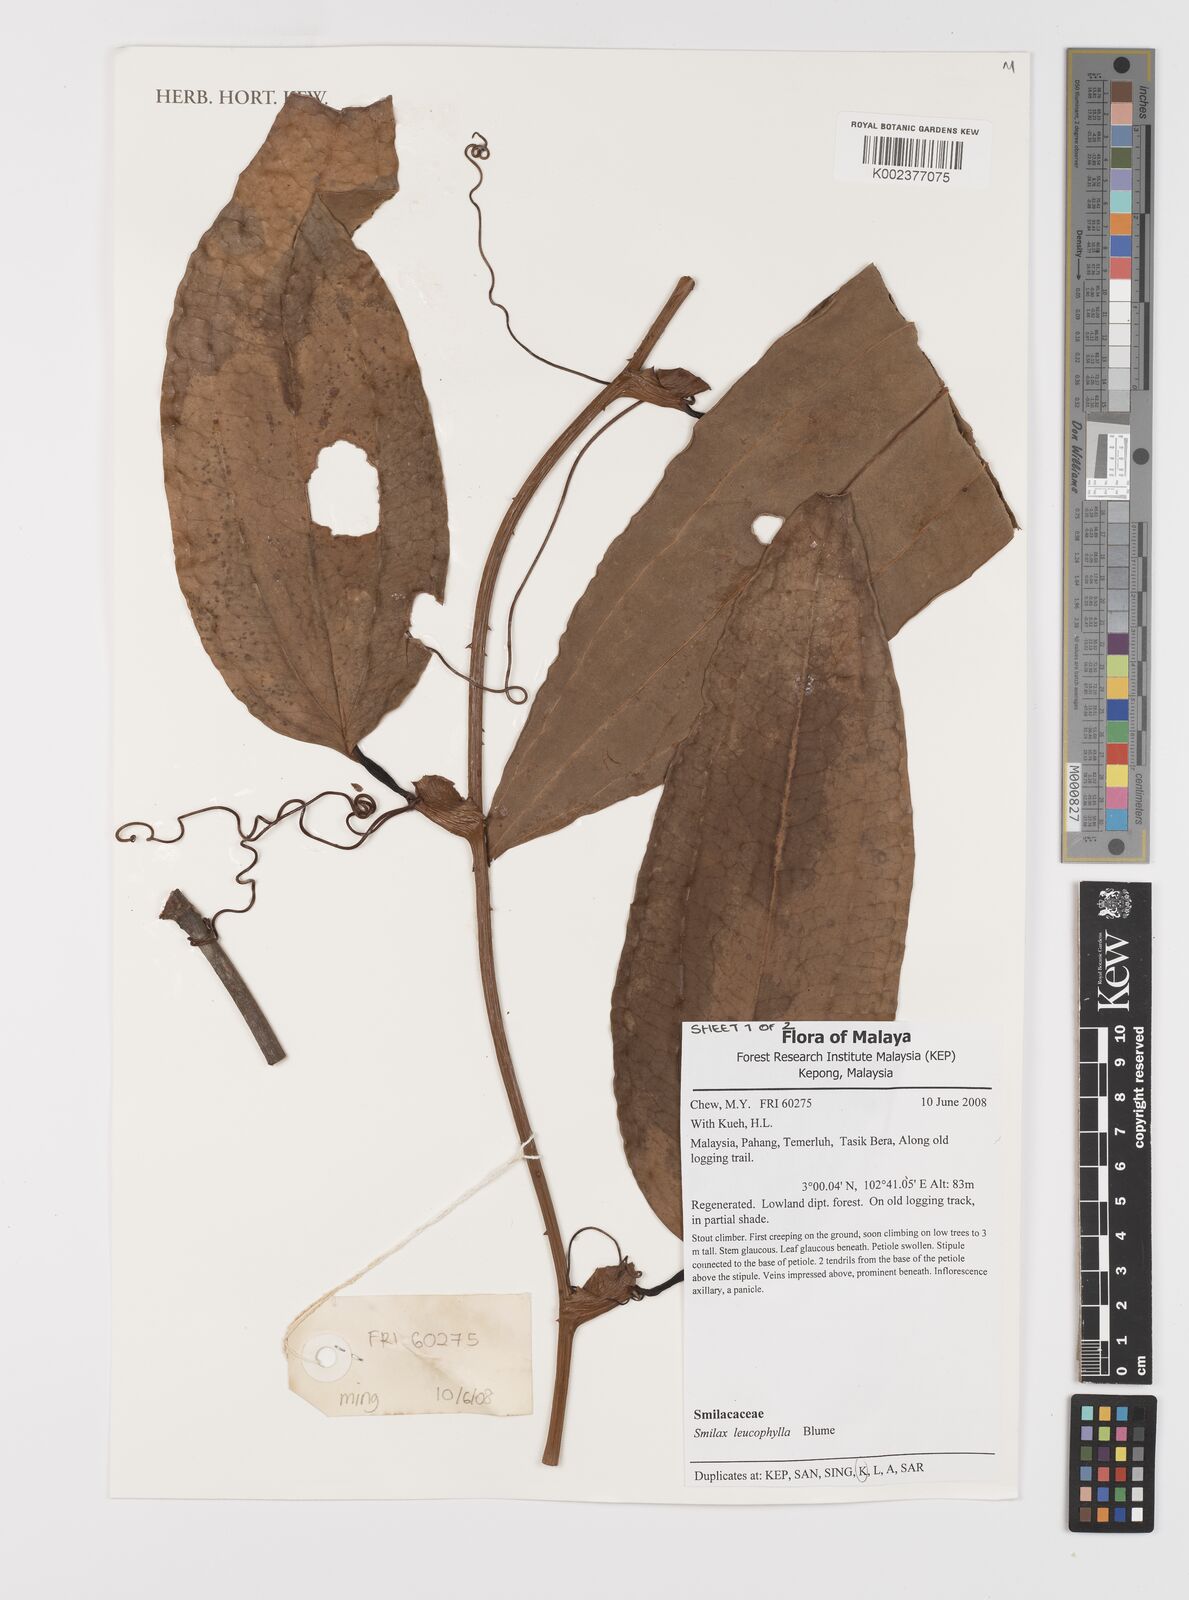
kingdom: Plantae
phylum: Tracheophyta
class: Liliopsida
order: Liliales
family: Smilacaceae
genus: Smilax
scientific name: Smilax leucophylla
